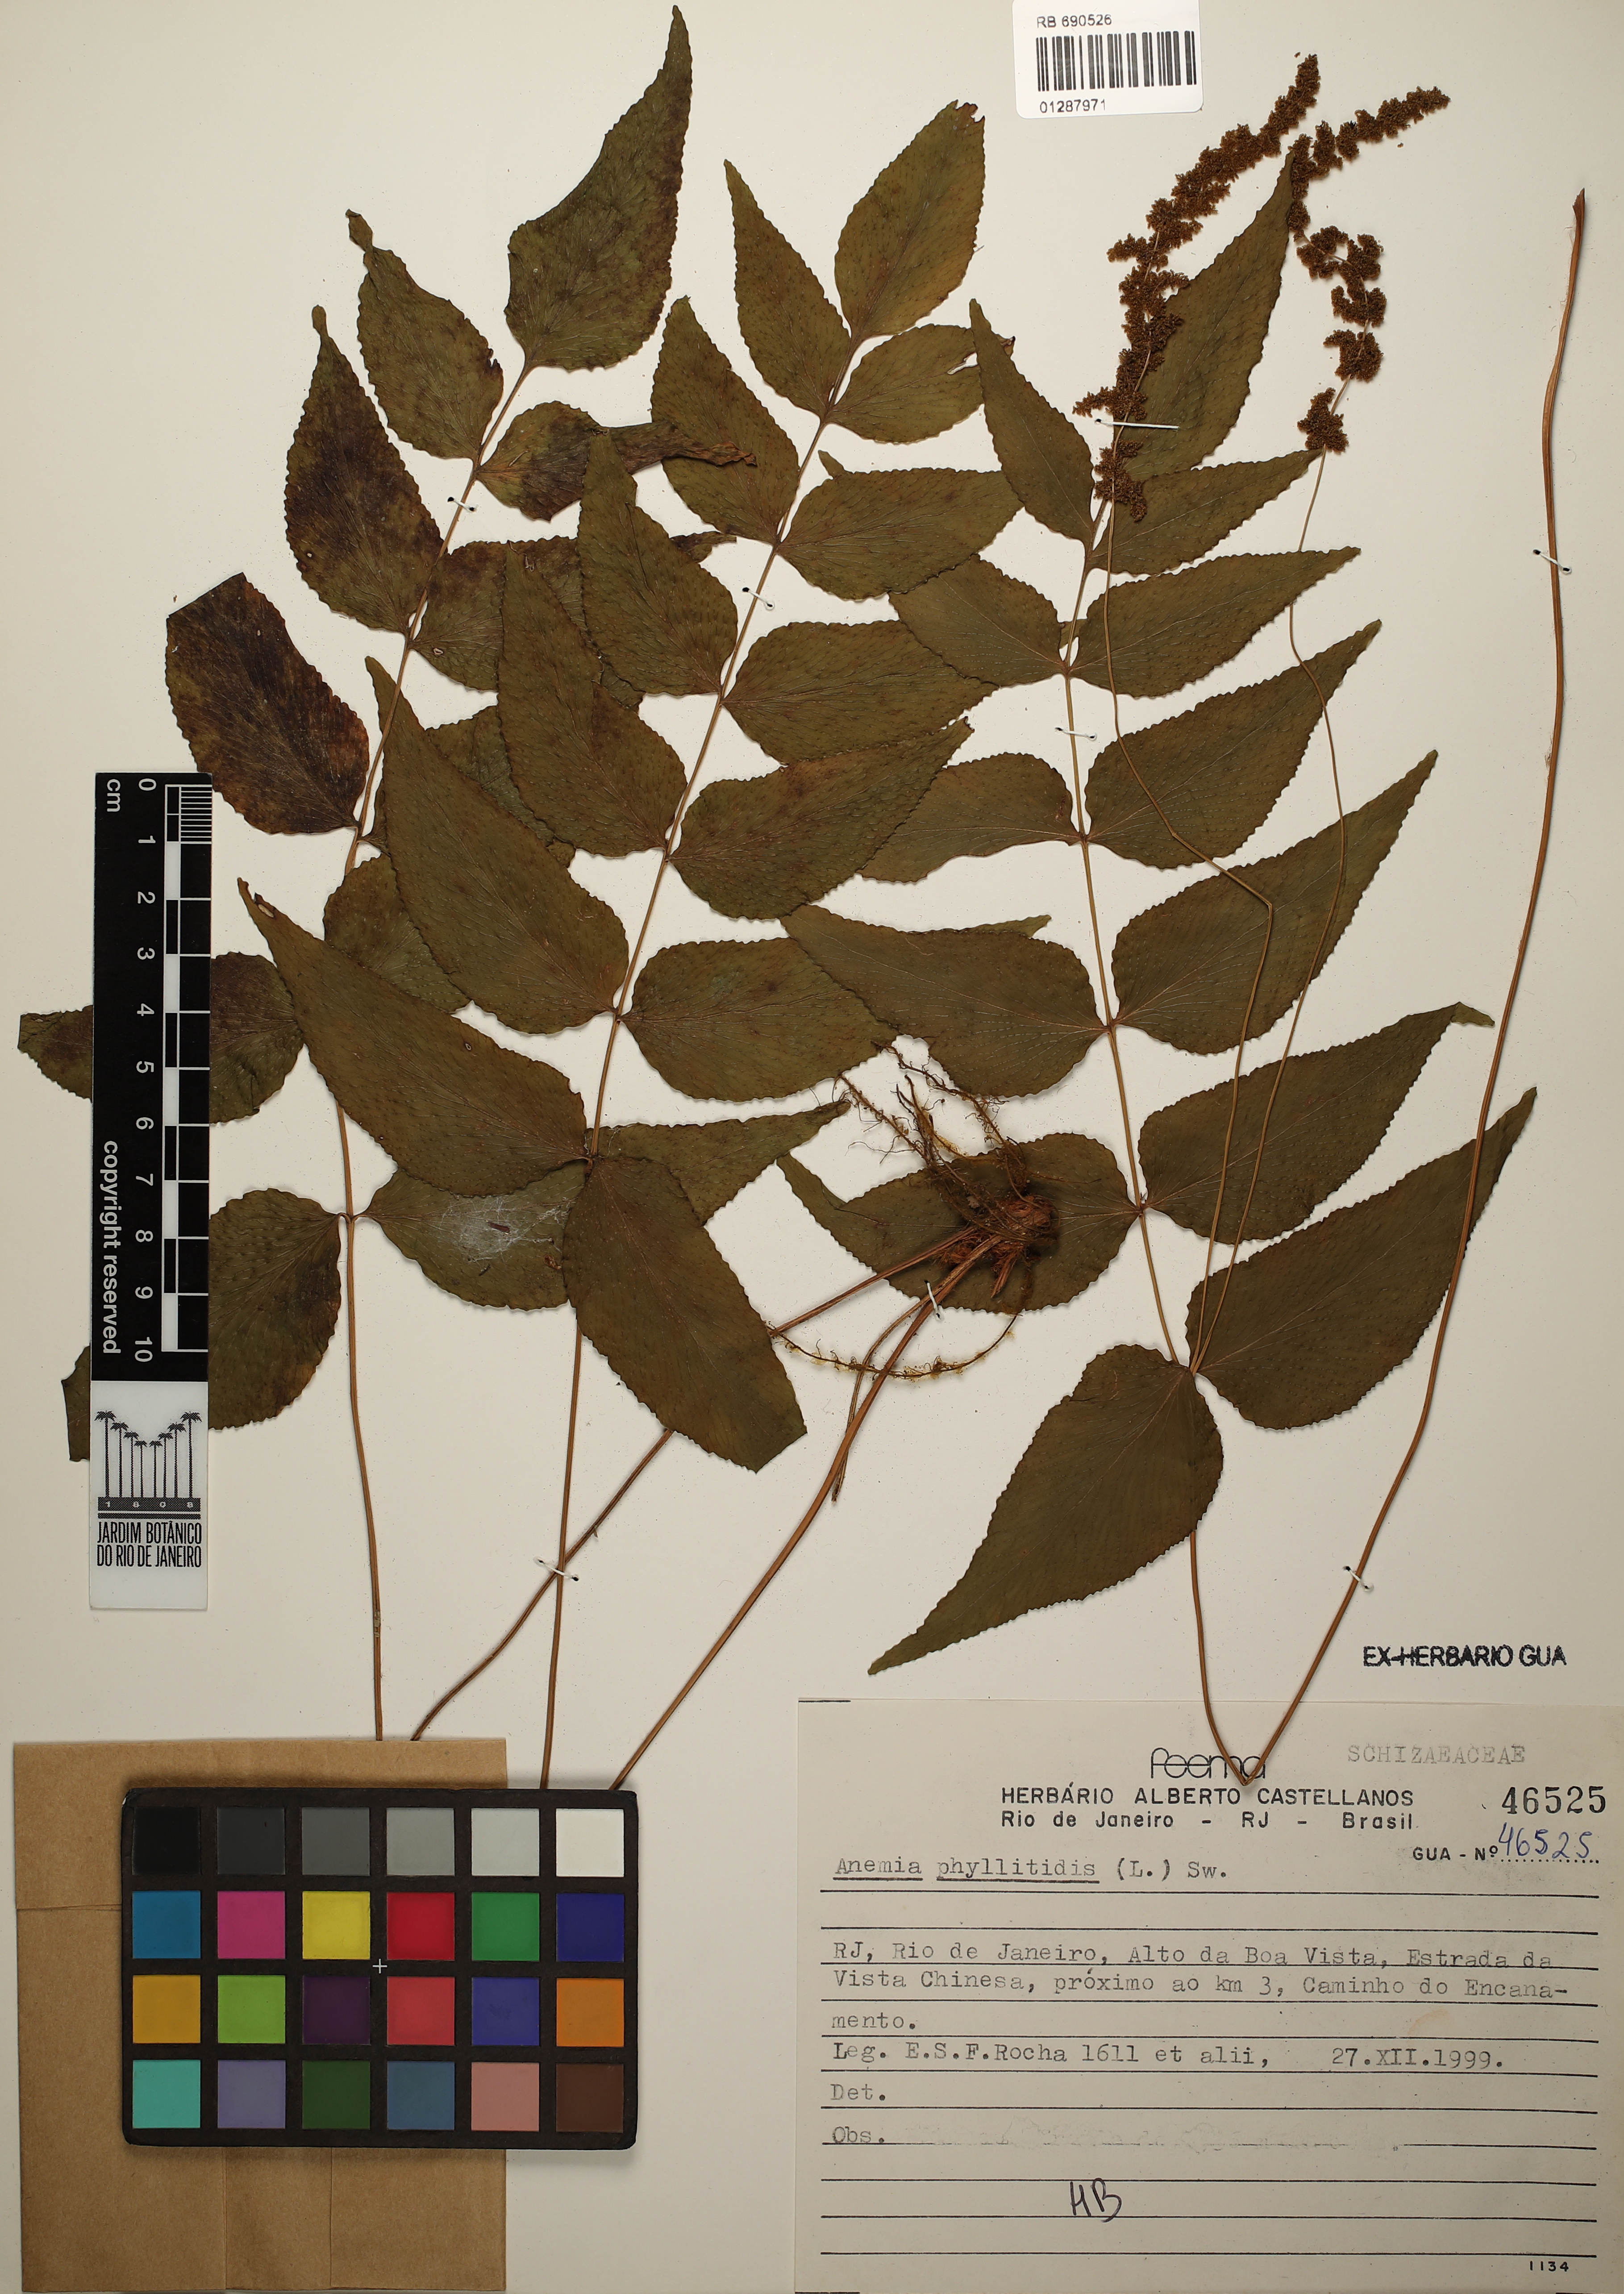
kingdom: Plantae
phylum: Tracheophyta
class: Polypodiopsida
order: Schizaeales
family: Anemiaceae
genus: Anemia
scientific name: Anemia phyllitidis
